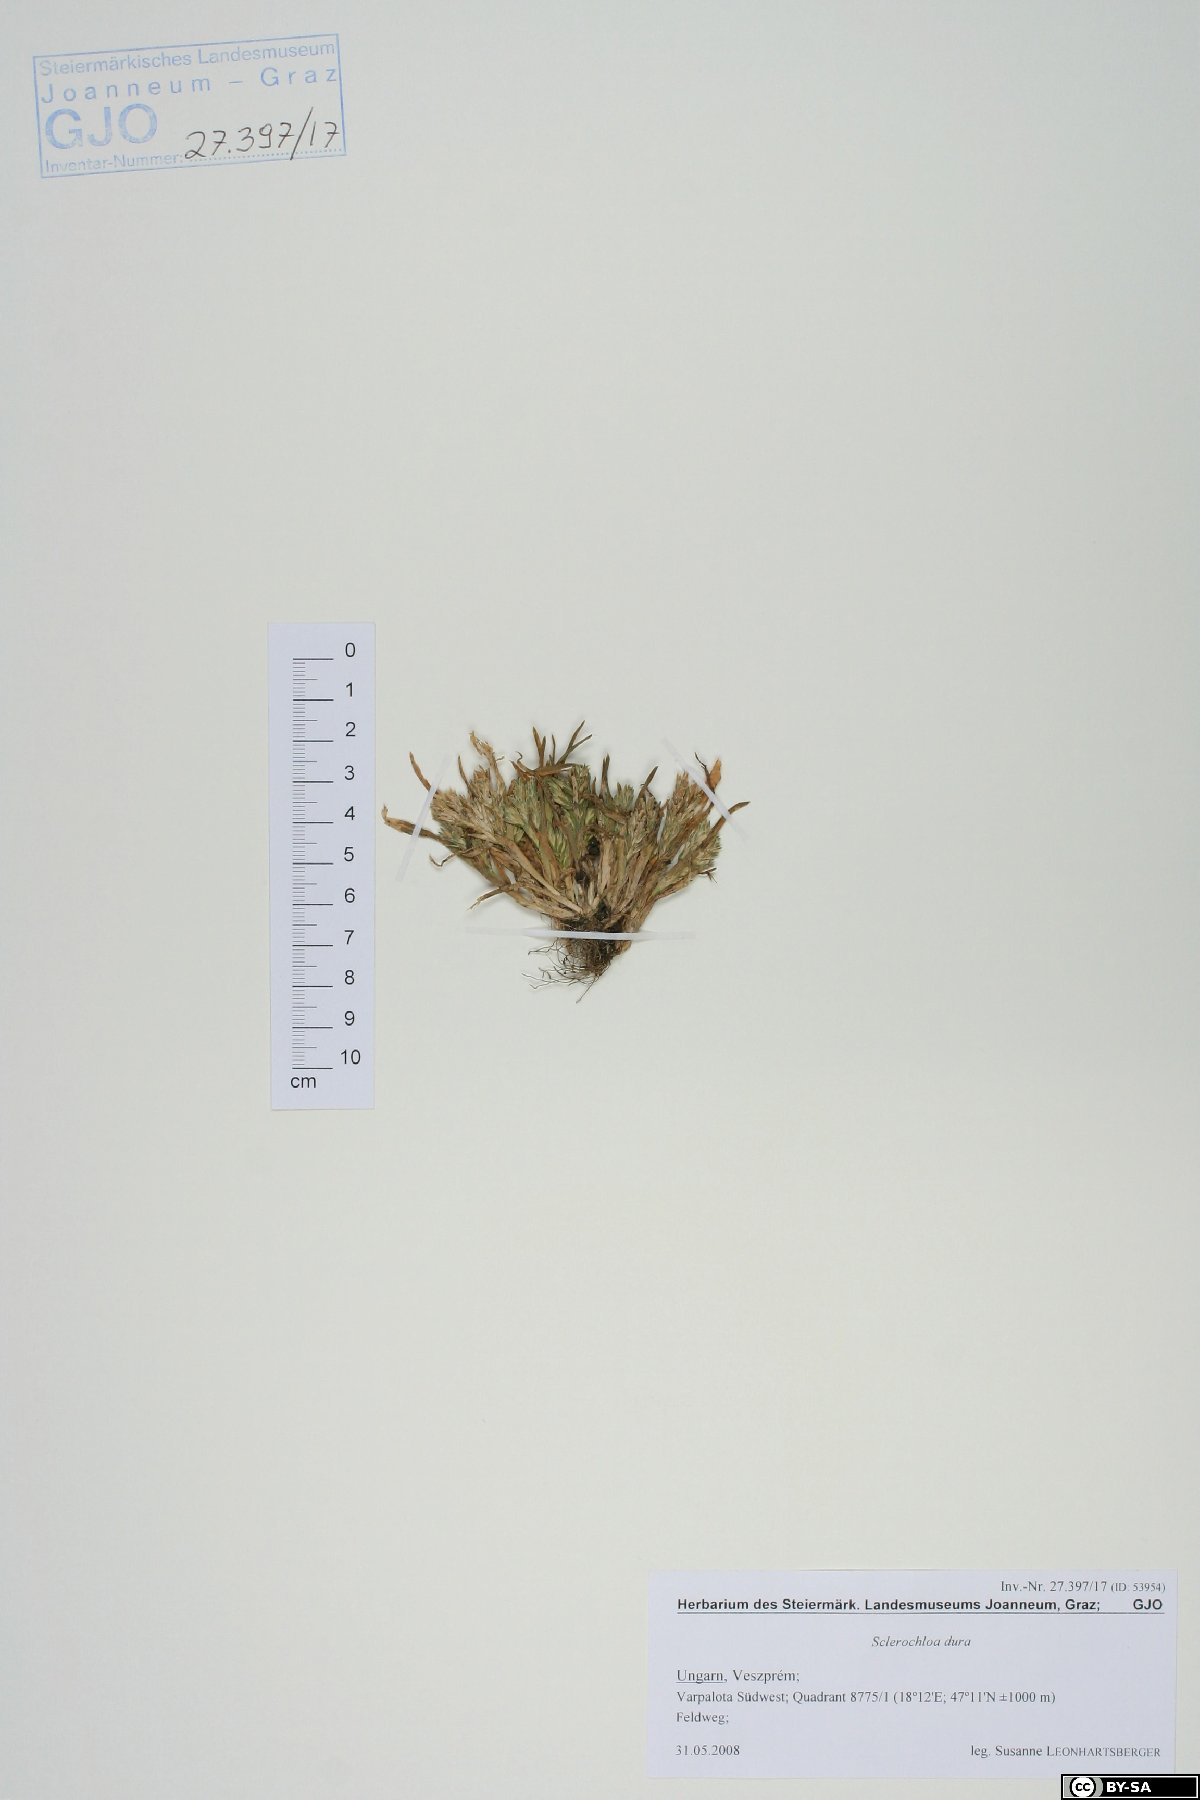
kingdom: Plantae
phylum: Tracheophyta
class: Liliopsida
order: Poales
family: Poaceae
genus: Sclerochloa
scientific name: Sclerochloa dura
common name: Common hardgrass
